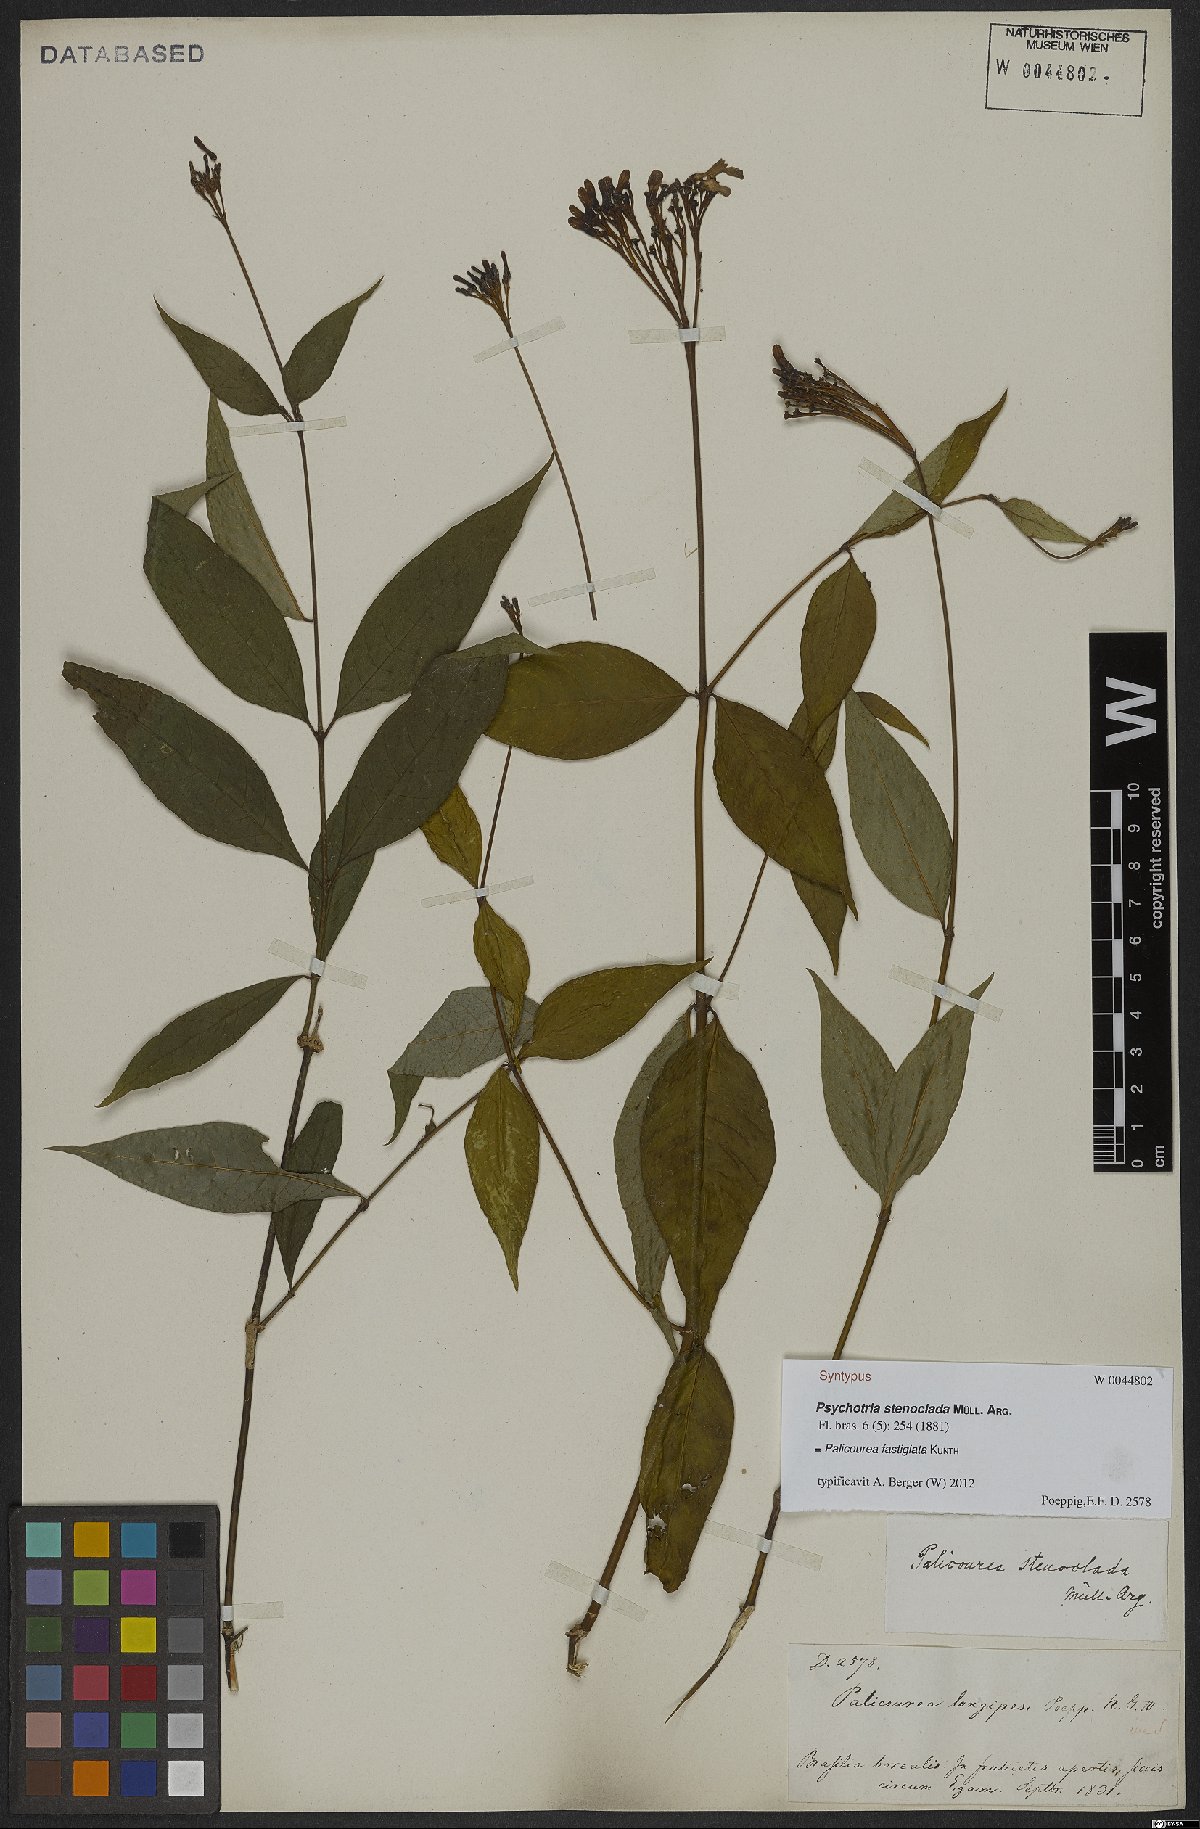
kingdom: Plantae
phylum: Tracheophyta
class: Magnoliopsida
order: Gentianales
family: Rubiaceae
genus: Palicourea
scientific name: Palicourea fastigiata
